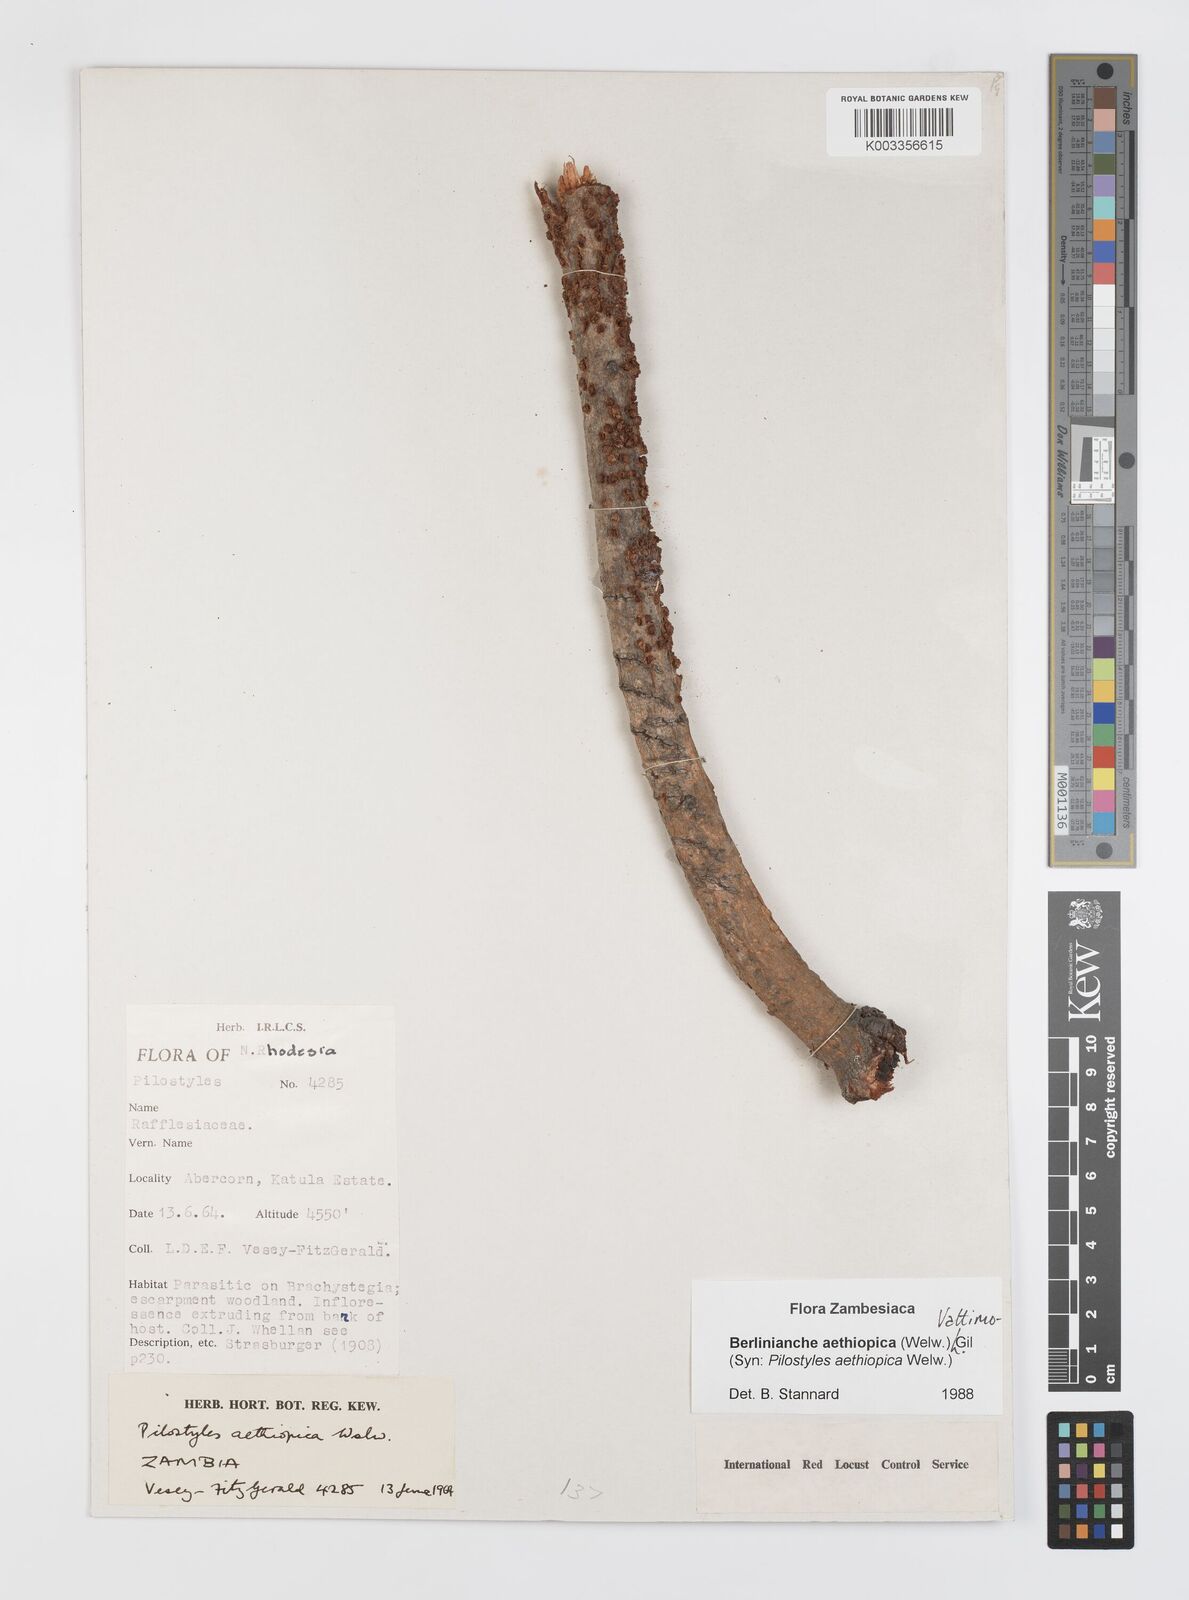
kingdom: Plantae
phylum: Tracheophyta
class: Magnoliopsida
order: Cucurbitales
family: Apodanthaceae
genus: Pilostyles
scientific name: Pilostyles aethiopica
